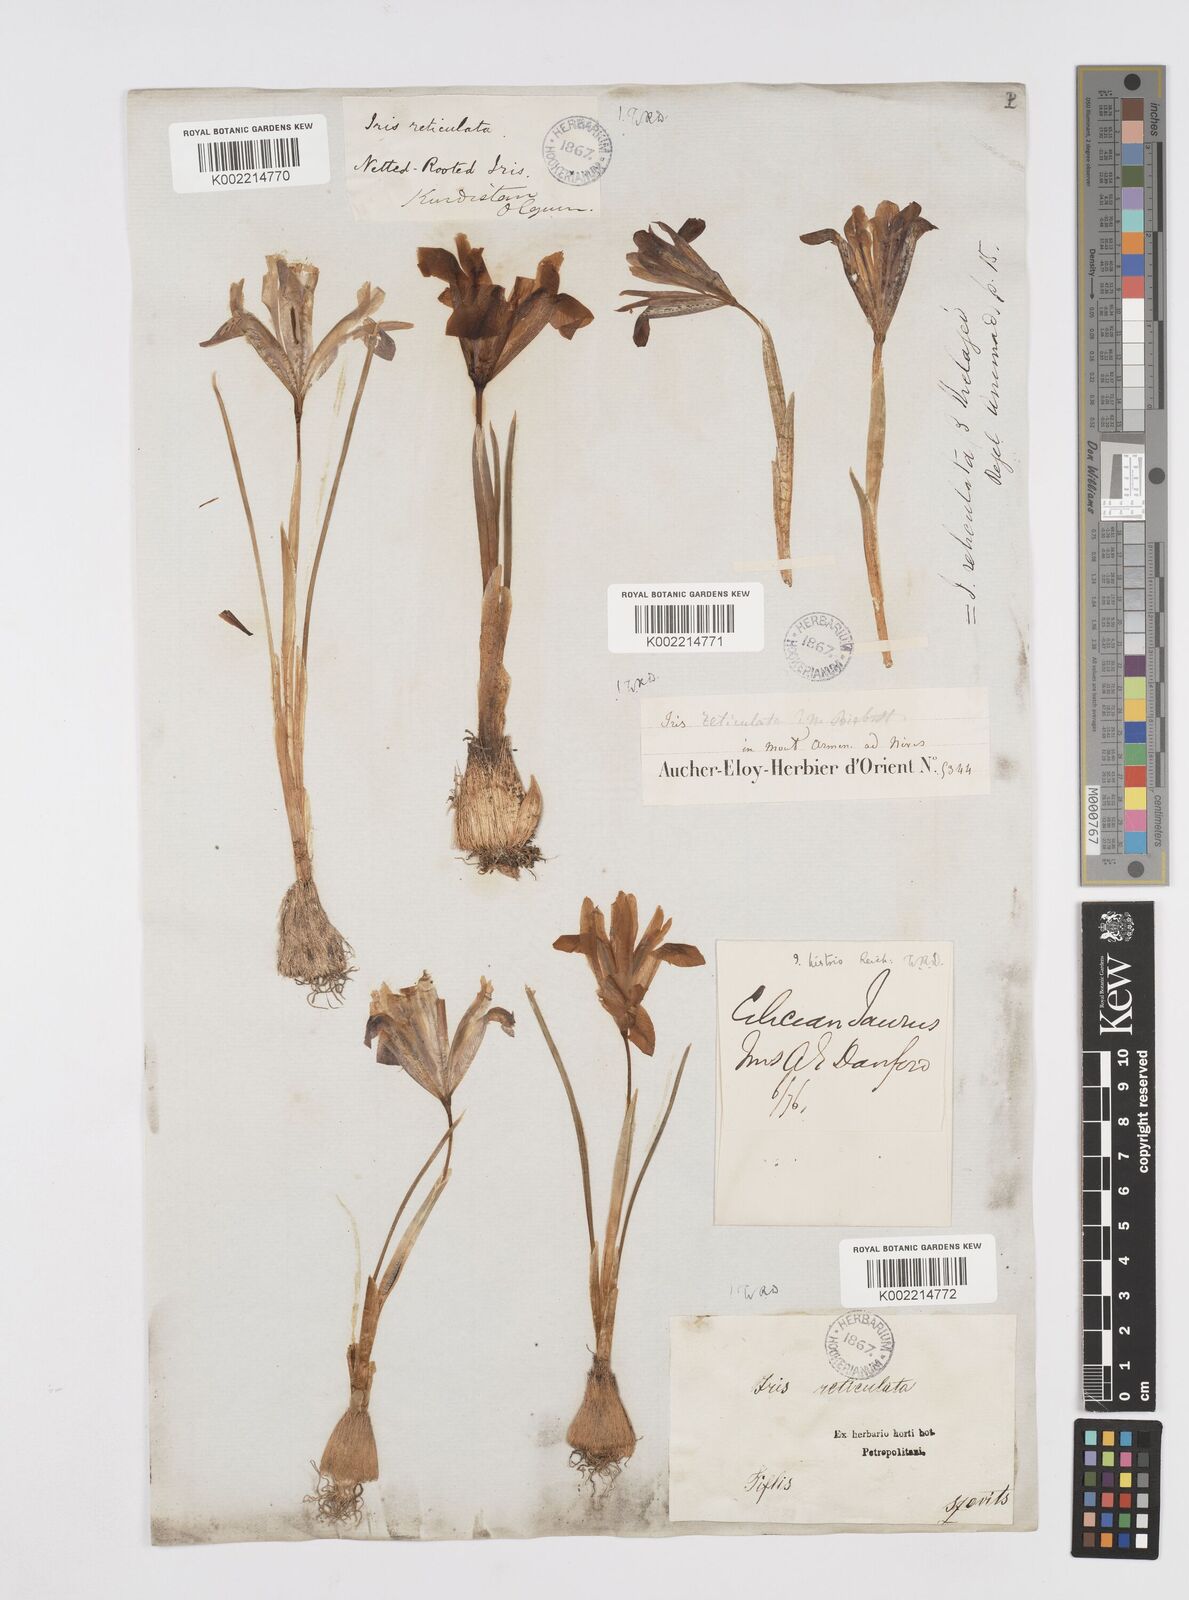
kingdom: Plantae
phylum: Tracheophyta
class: Liliopsida
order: Asparagales
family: Iridaceae
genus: Iris
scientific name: Iris reticulata
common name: Netted iris
